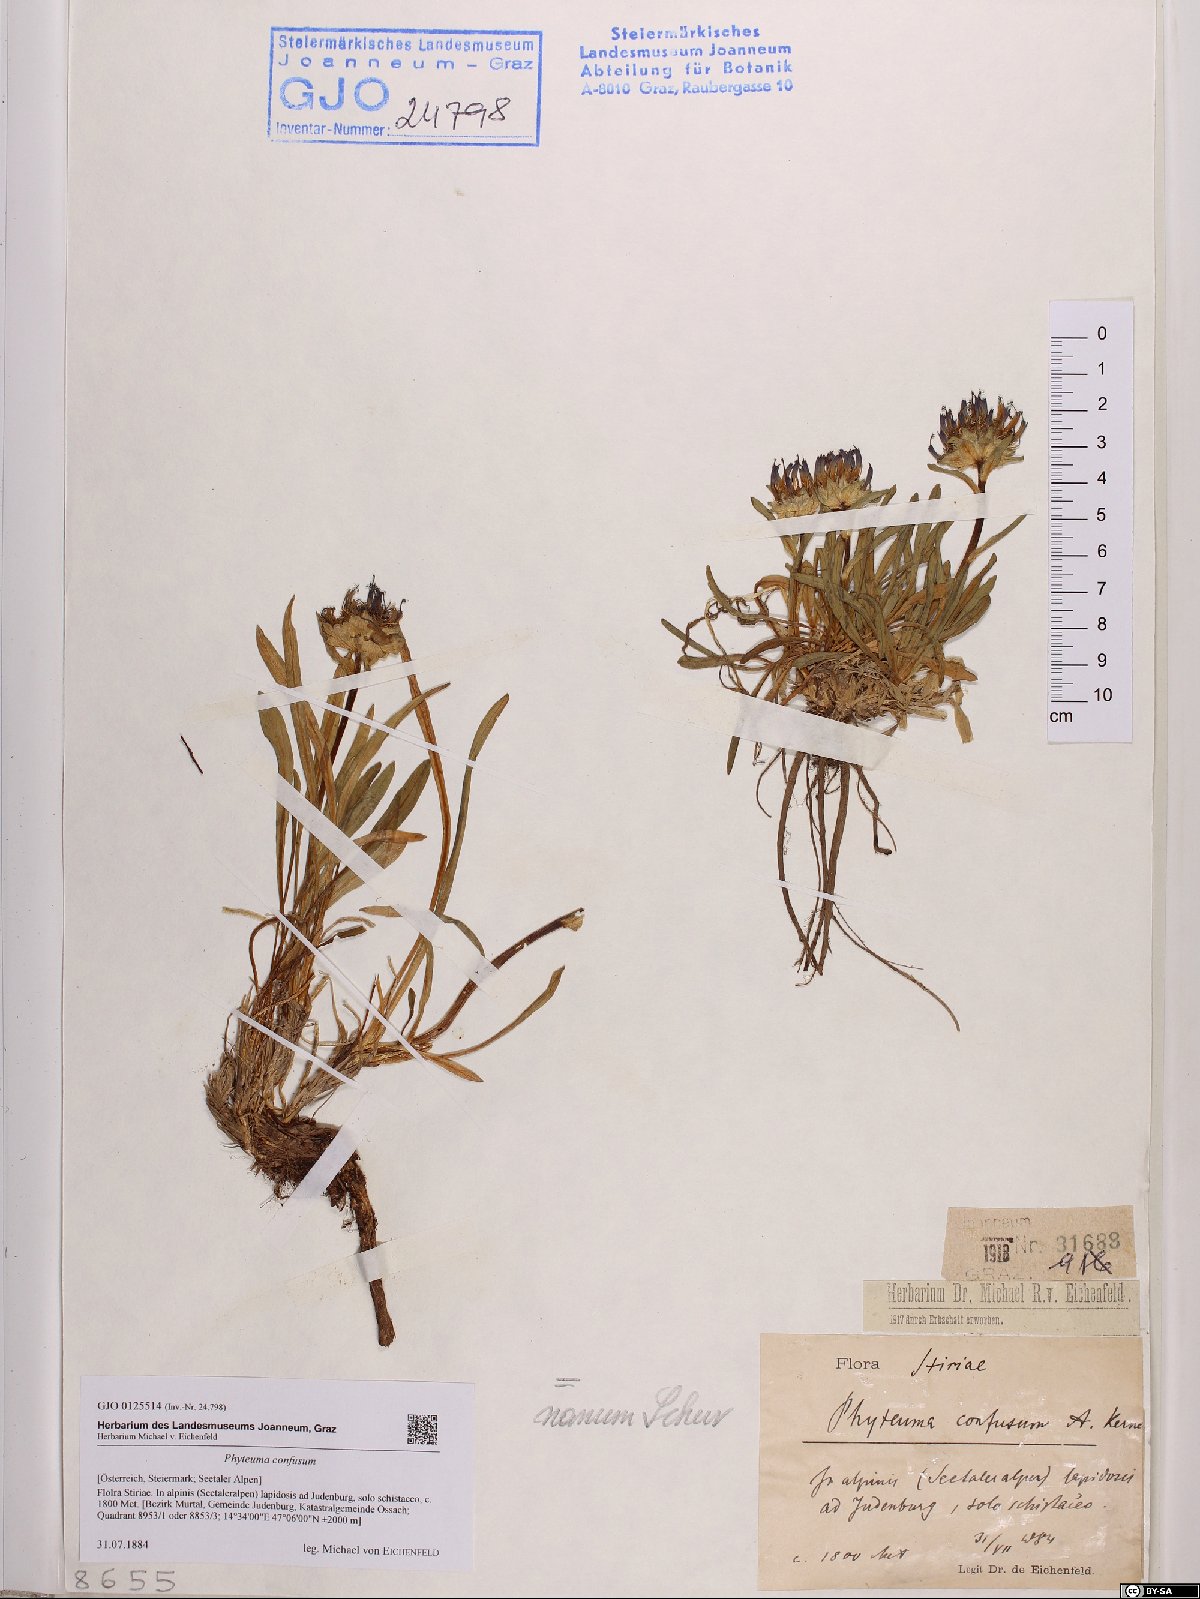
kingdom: Plantae
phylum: Tracheophyta
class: Magnoliopsida
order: Asterales
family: Campanulaceae
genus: Phyteuma
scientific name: Phyteuma confusum
